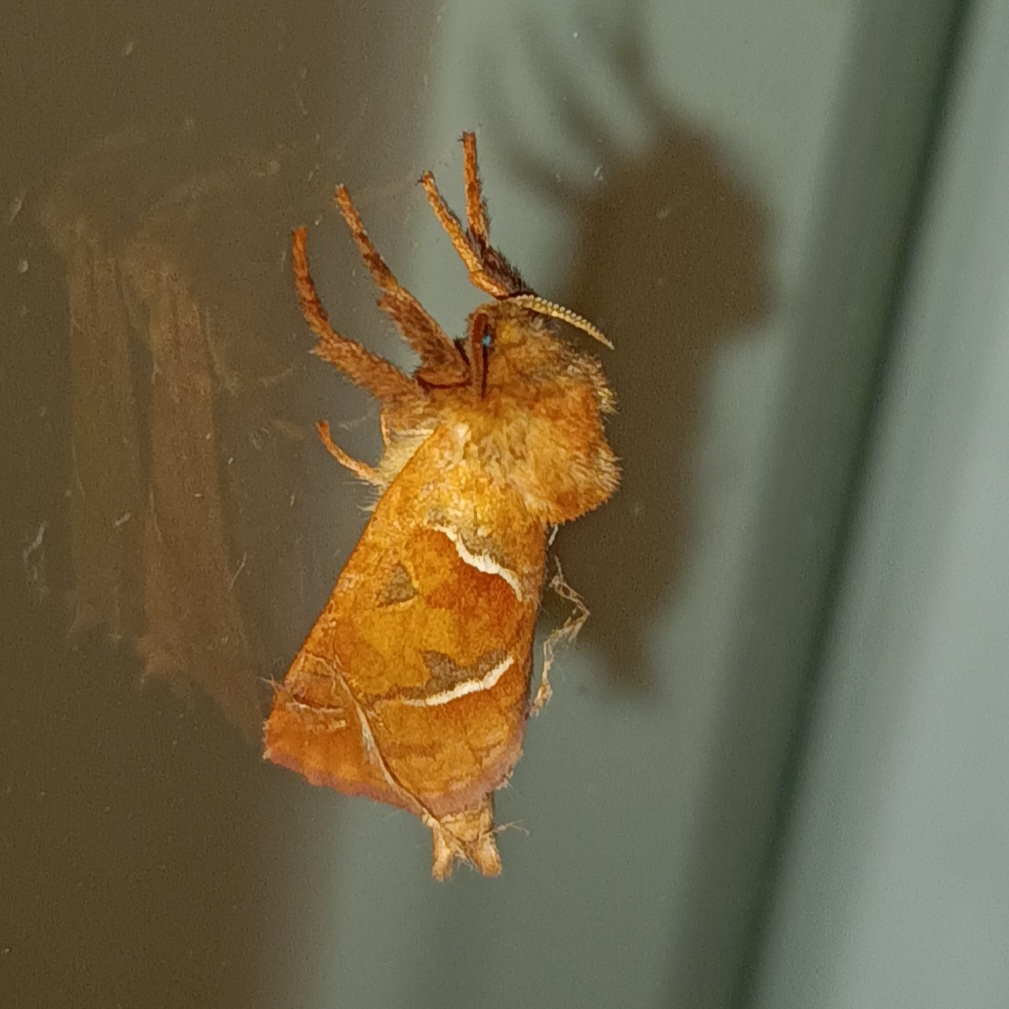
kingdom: Animalia
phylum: Arthropoda
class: Insecta
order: Lepidoptera
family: Hepialidae
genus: Triodia
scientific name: Triodia sylvina
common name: Skræpperodæder
